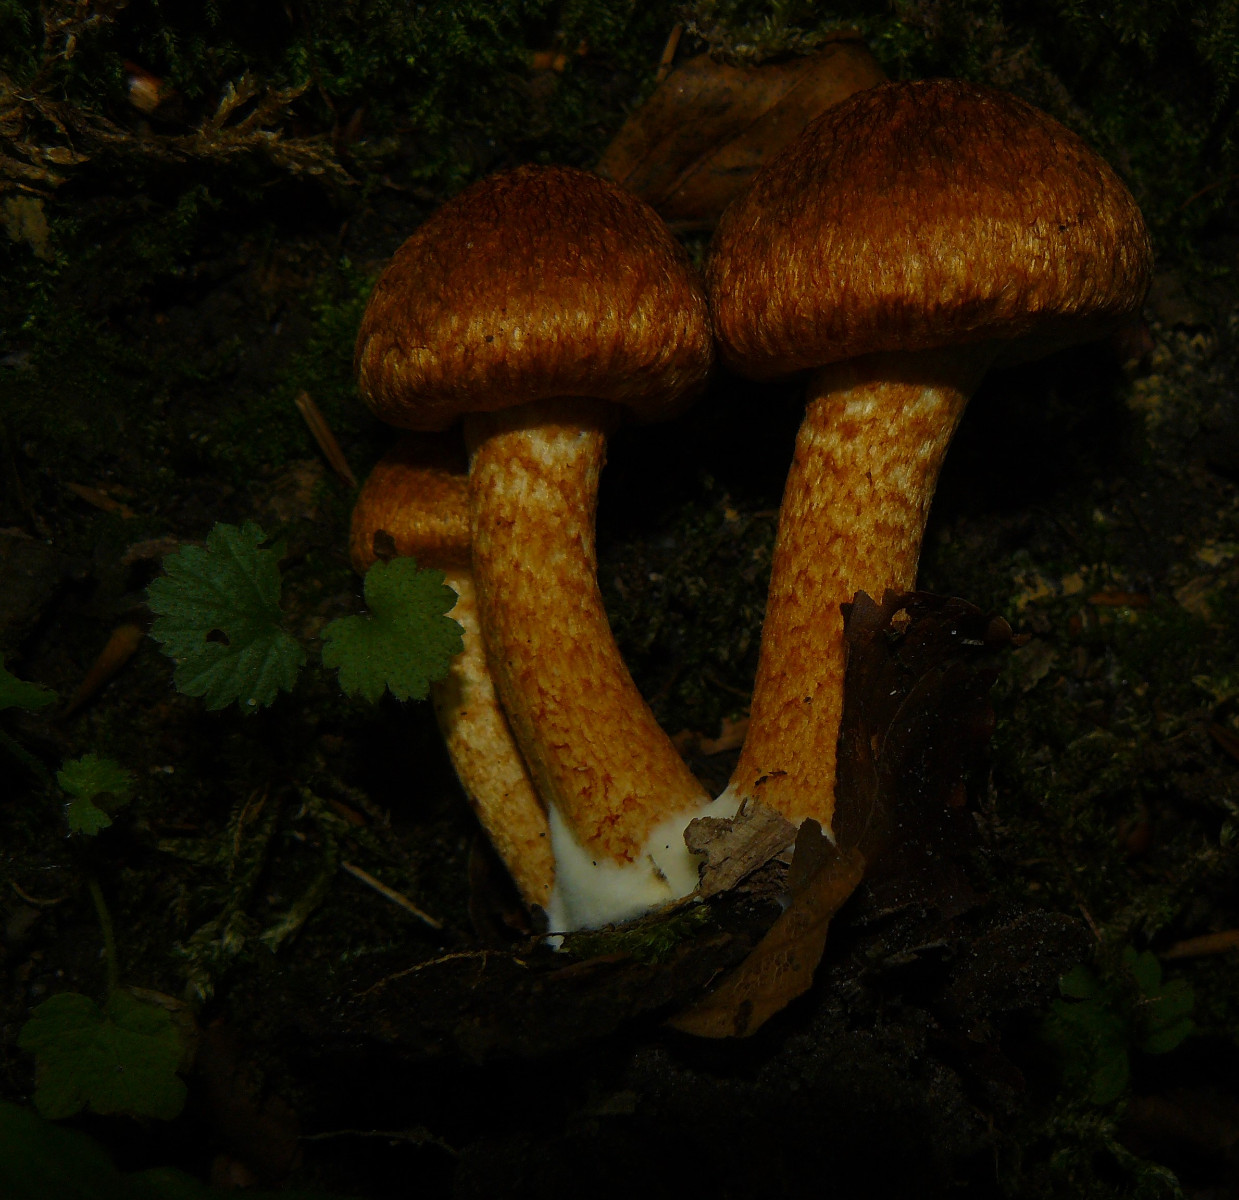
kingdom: Fungi
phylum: Basidiomycota
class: Agaricomycetes
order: Agaricales
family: Psathyrellaceae
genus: Lacrymaria
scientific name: Lacrymaria pyrotricha
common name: ildhåret mørkhat
